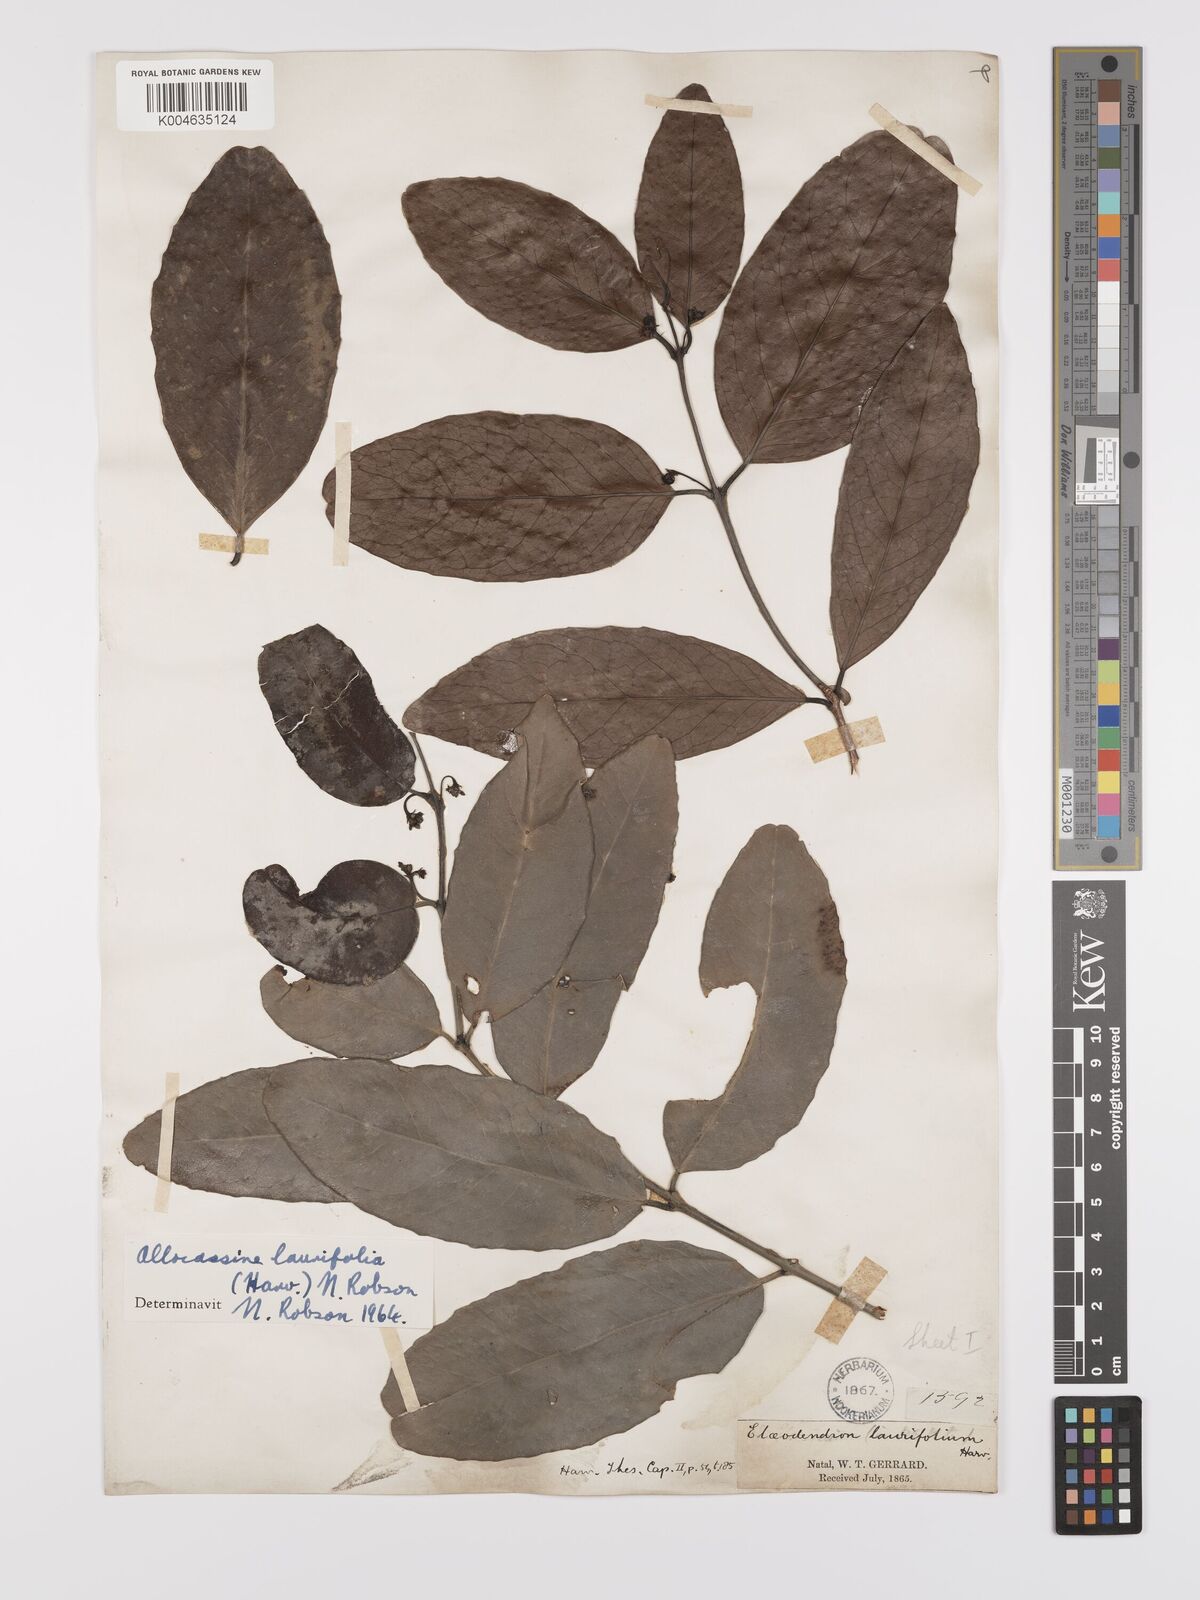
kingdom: Plantae
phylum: Tracheophyta
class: Magnoliopsida
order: Celastrales
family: Celastraceae
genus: Allocassine
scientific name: Allocassine
